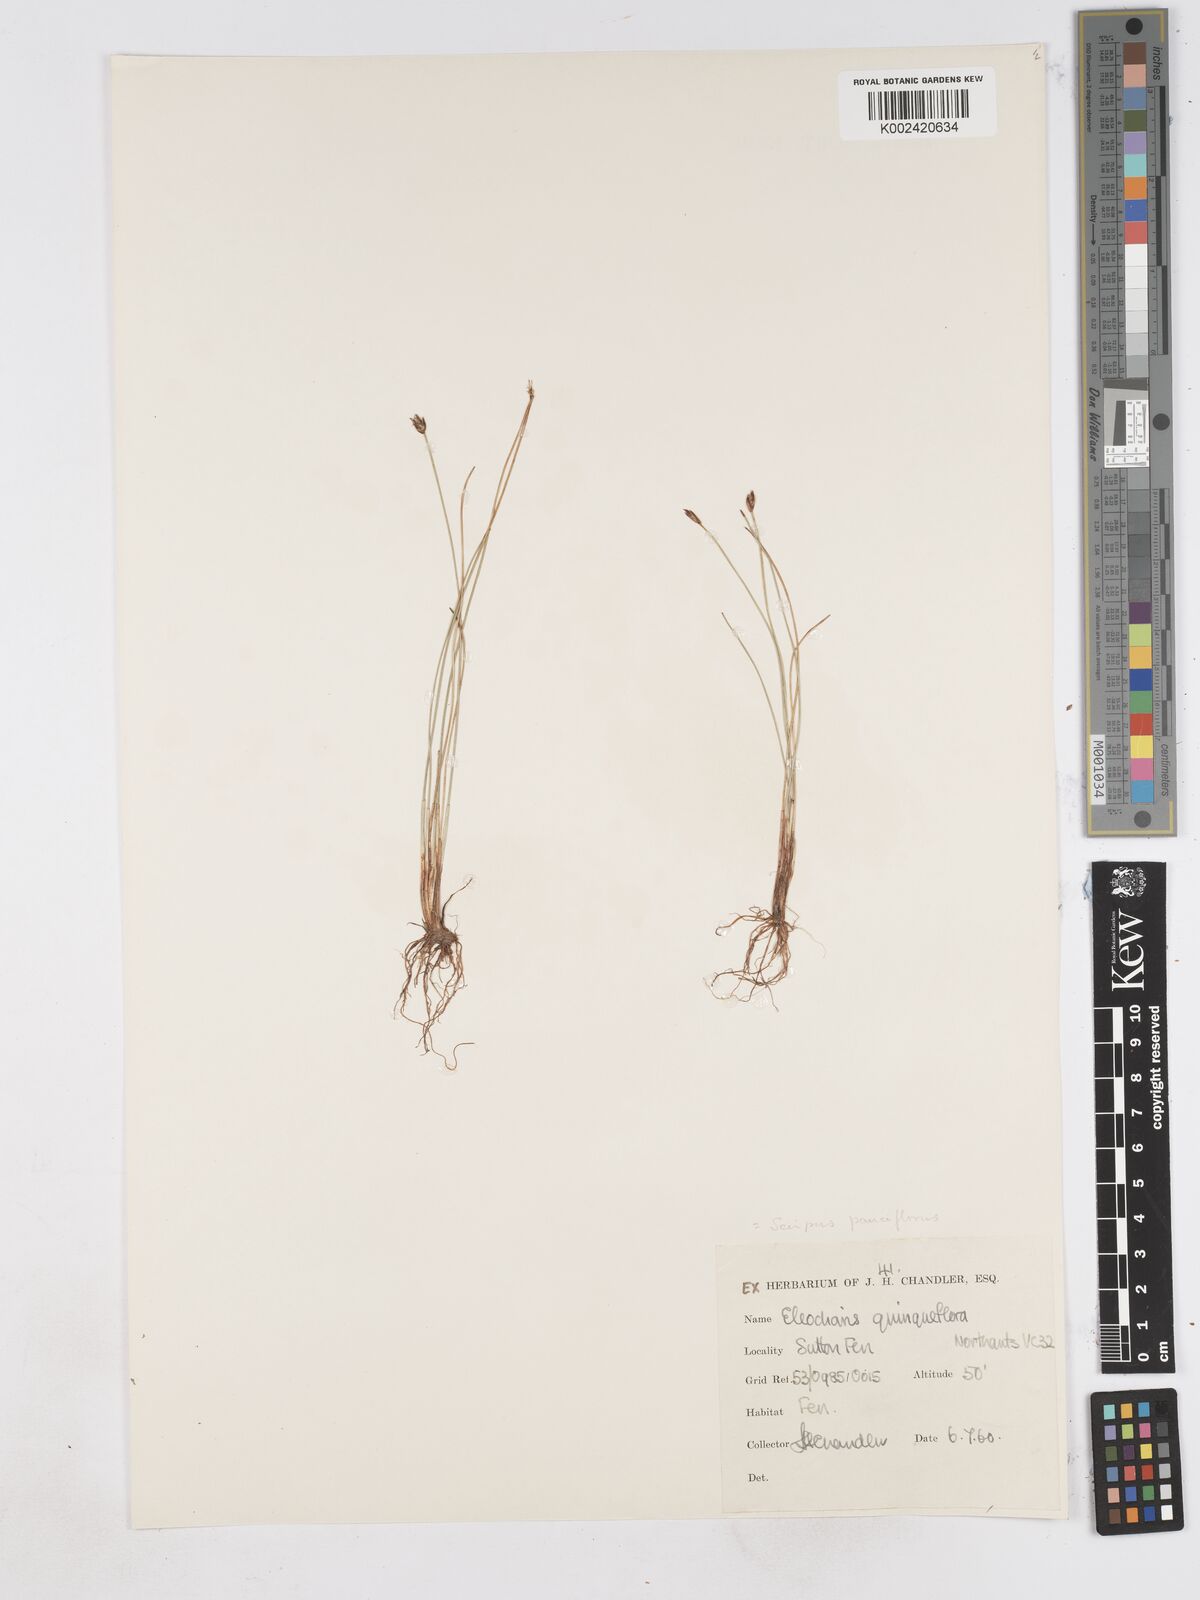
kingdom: Plantae
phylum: Tracheophyta
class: Liliopsida
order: Poales
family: Cyperaceae
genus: Eleocharis
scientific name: Eleocharis quinqueflora
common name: Few-flowered spike-rush
